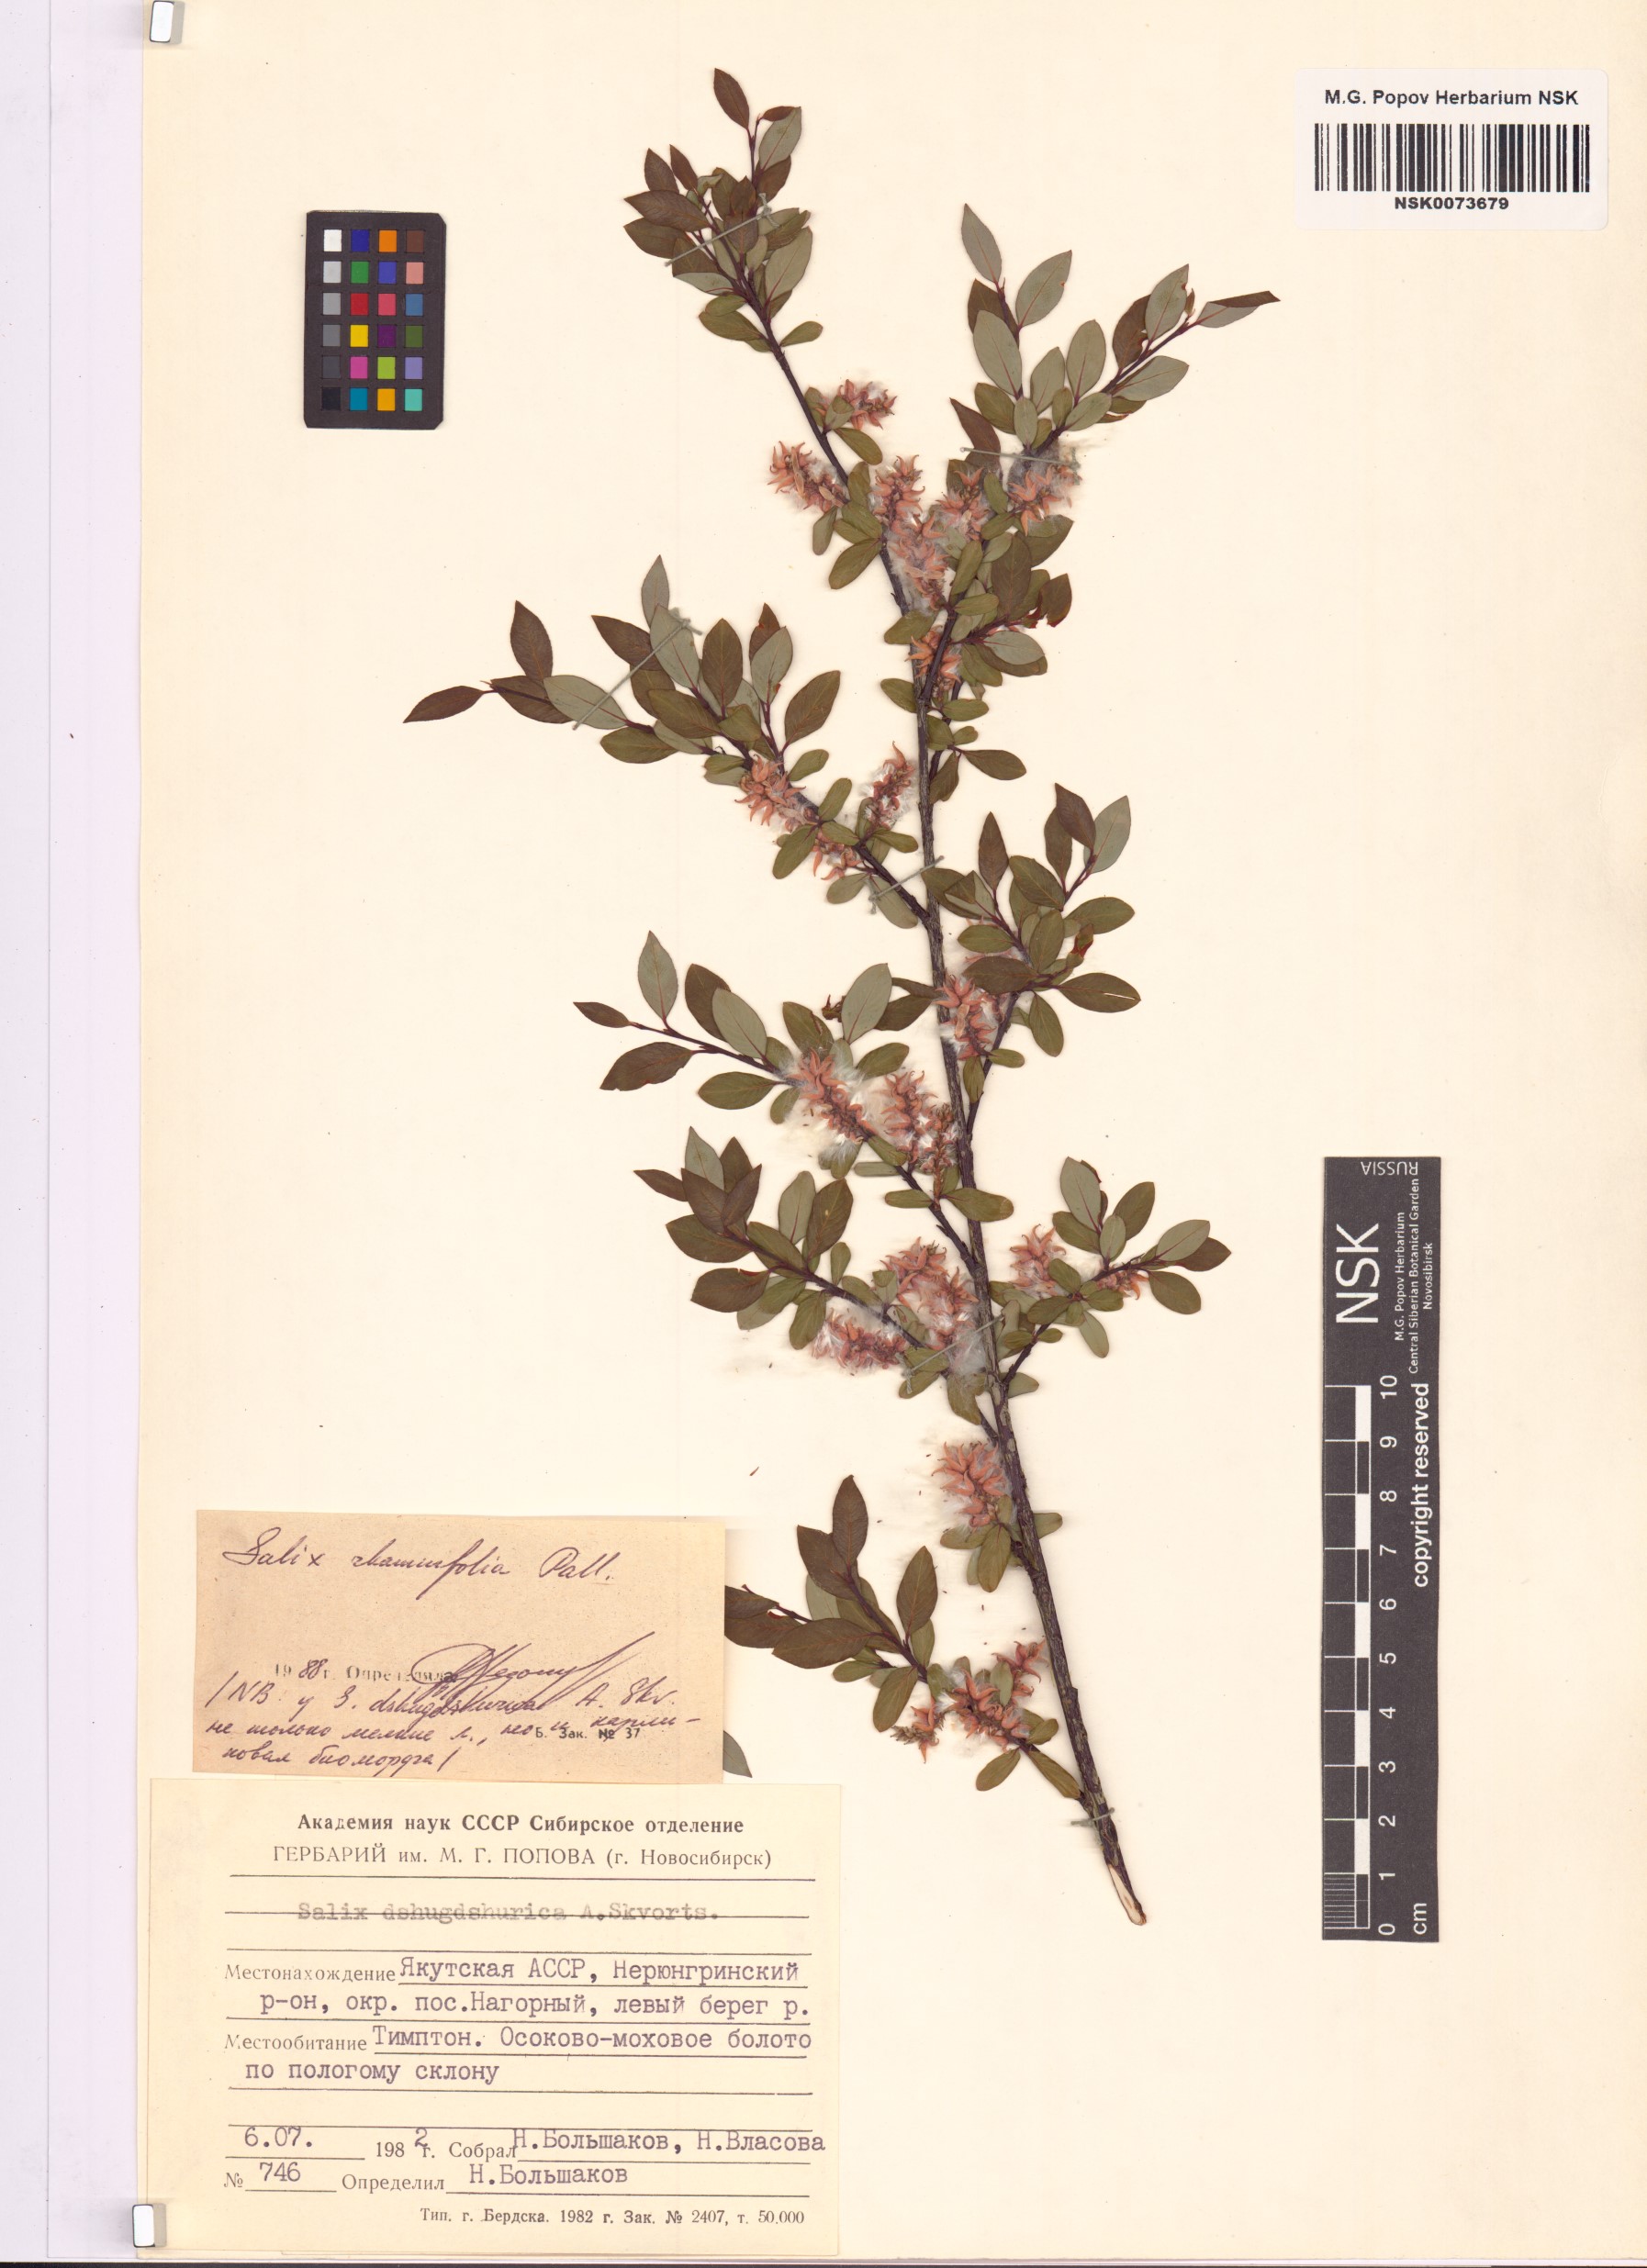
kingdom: Plantae
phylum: Tracheophyta
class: Magnoliopsida
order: Malpighiales
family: Salicaceae
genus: Salix
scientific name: Salix rhamnifolia
